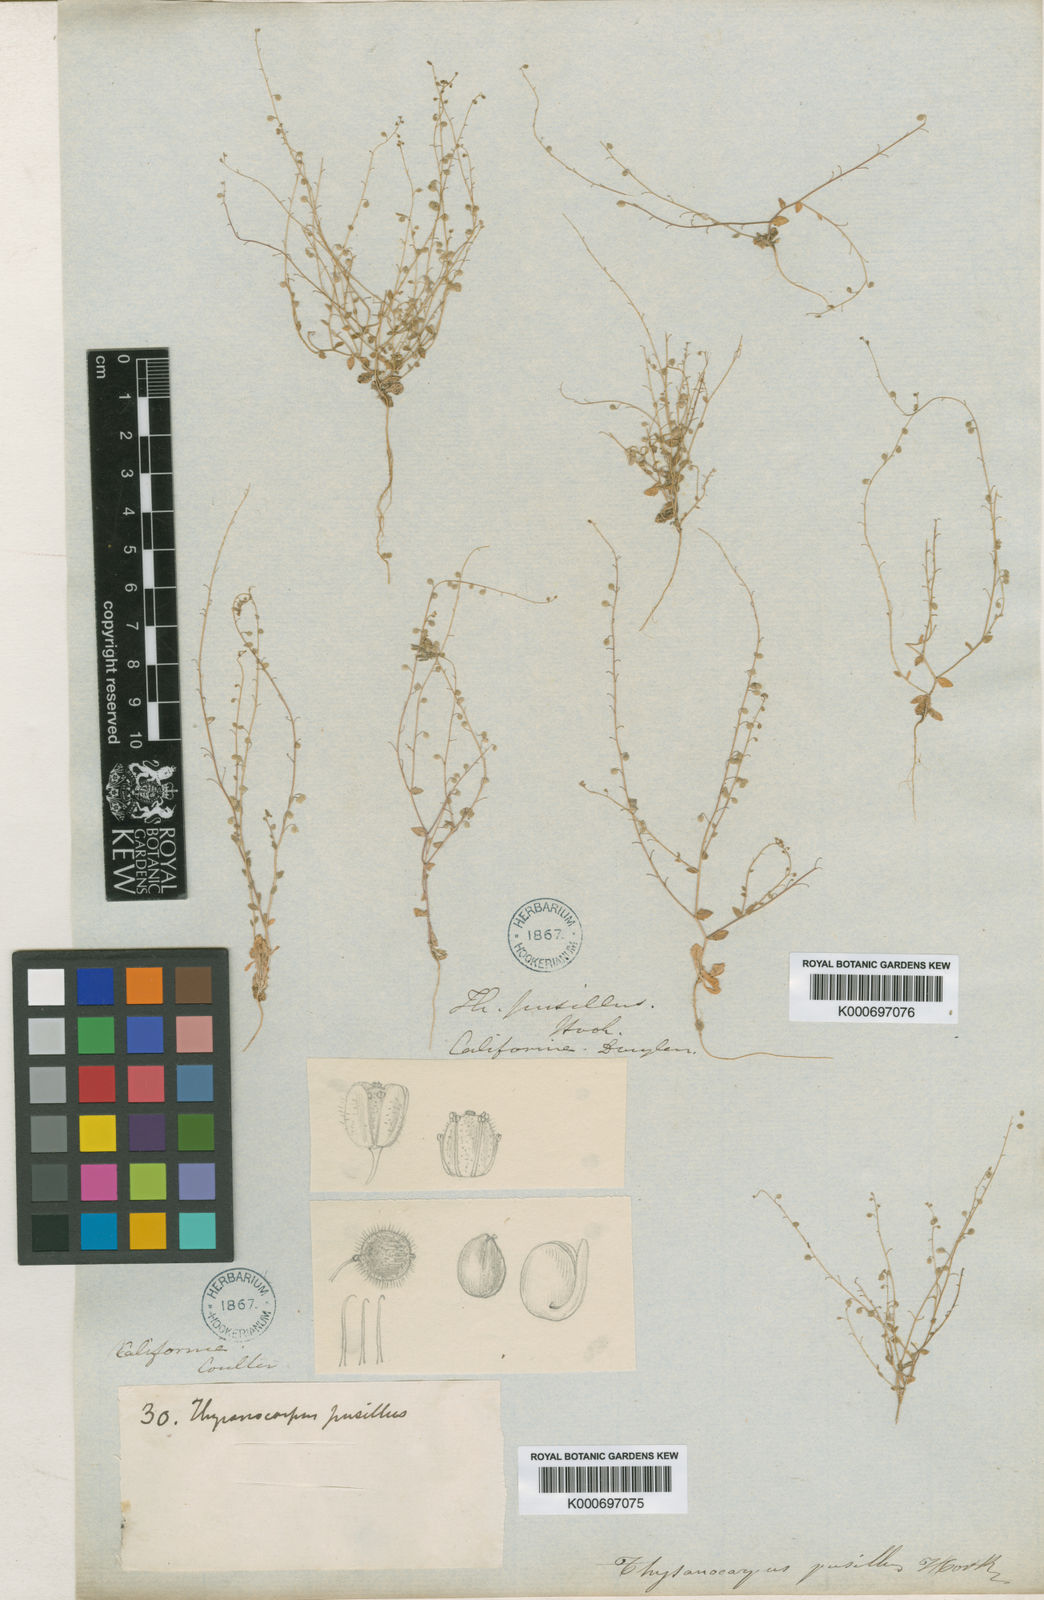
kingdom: Plantae
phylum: Tracheophyta
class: Magnoliopsida
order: Brassicales
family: Brassicaceae
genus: Athysanus
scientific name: Athysanus pusillus
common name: Common sandweed
